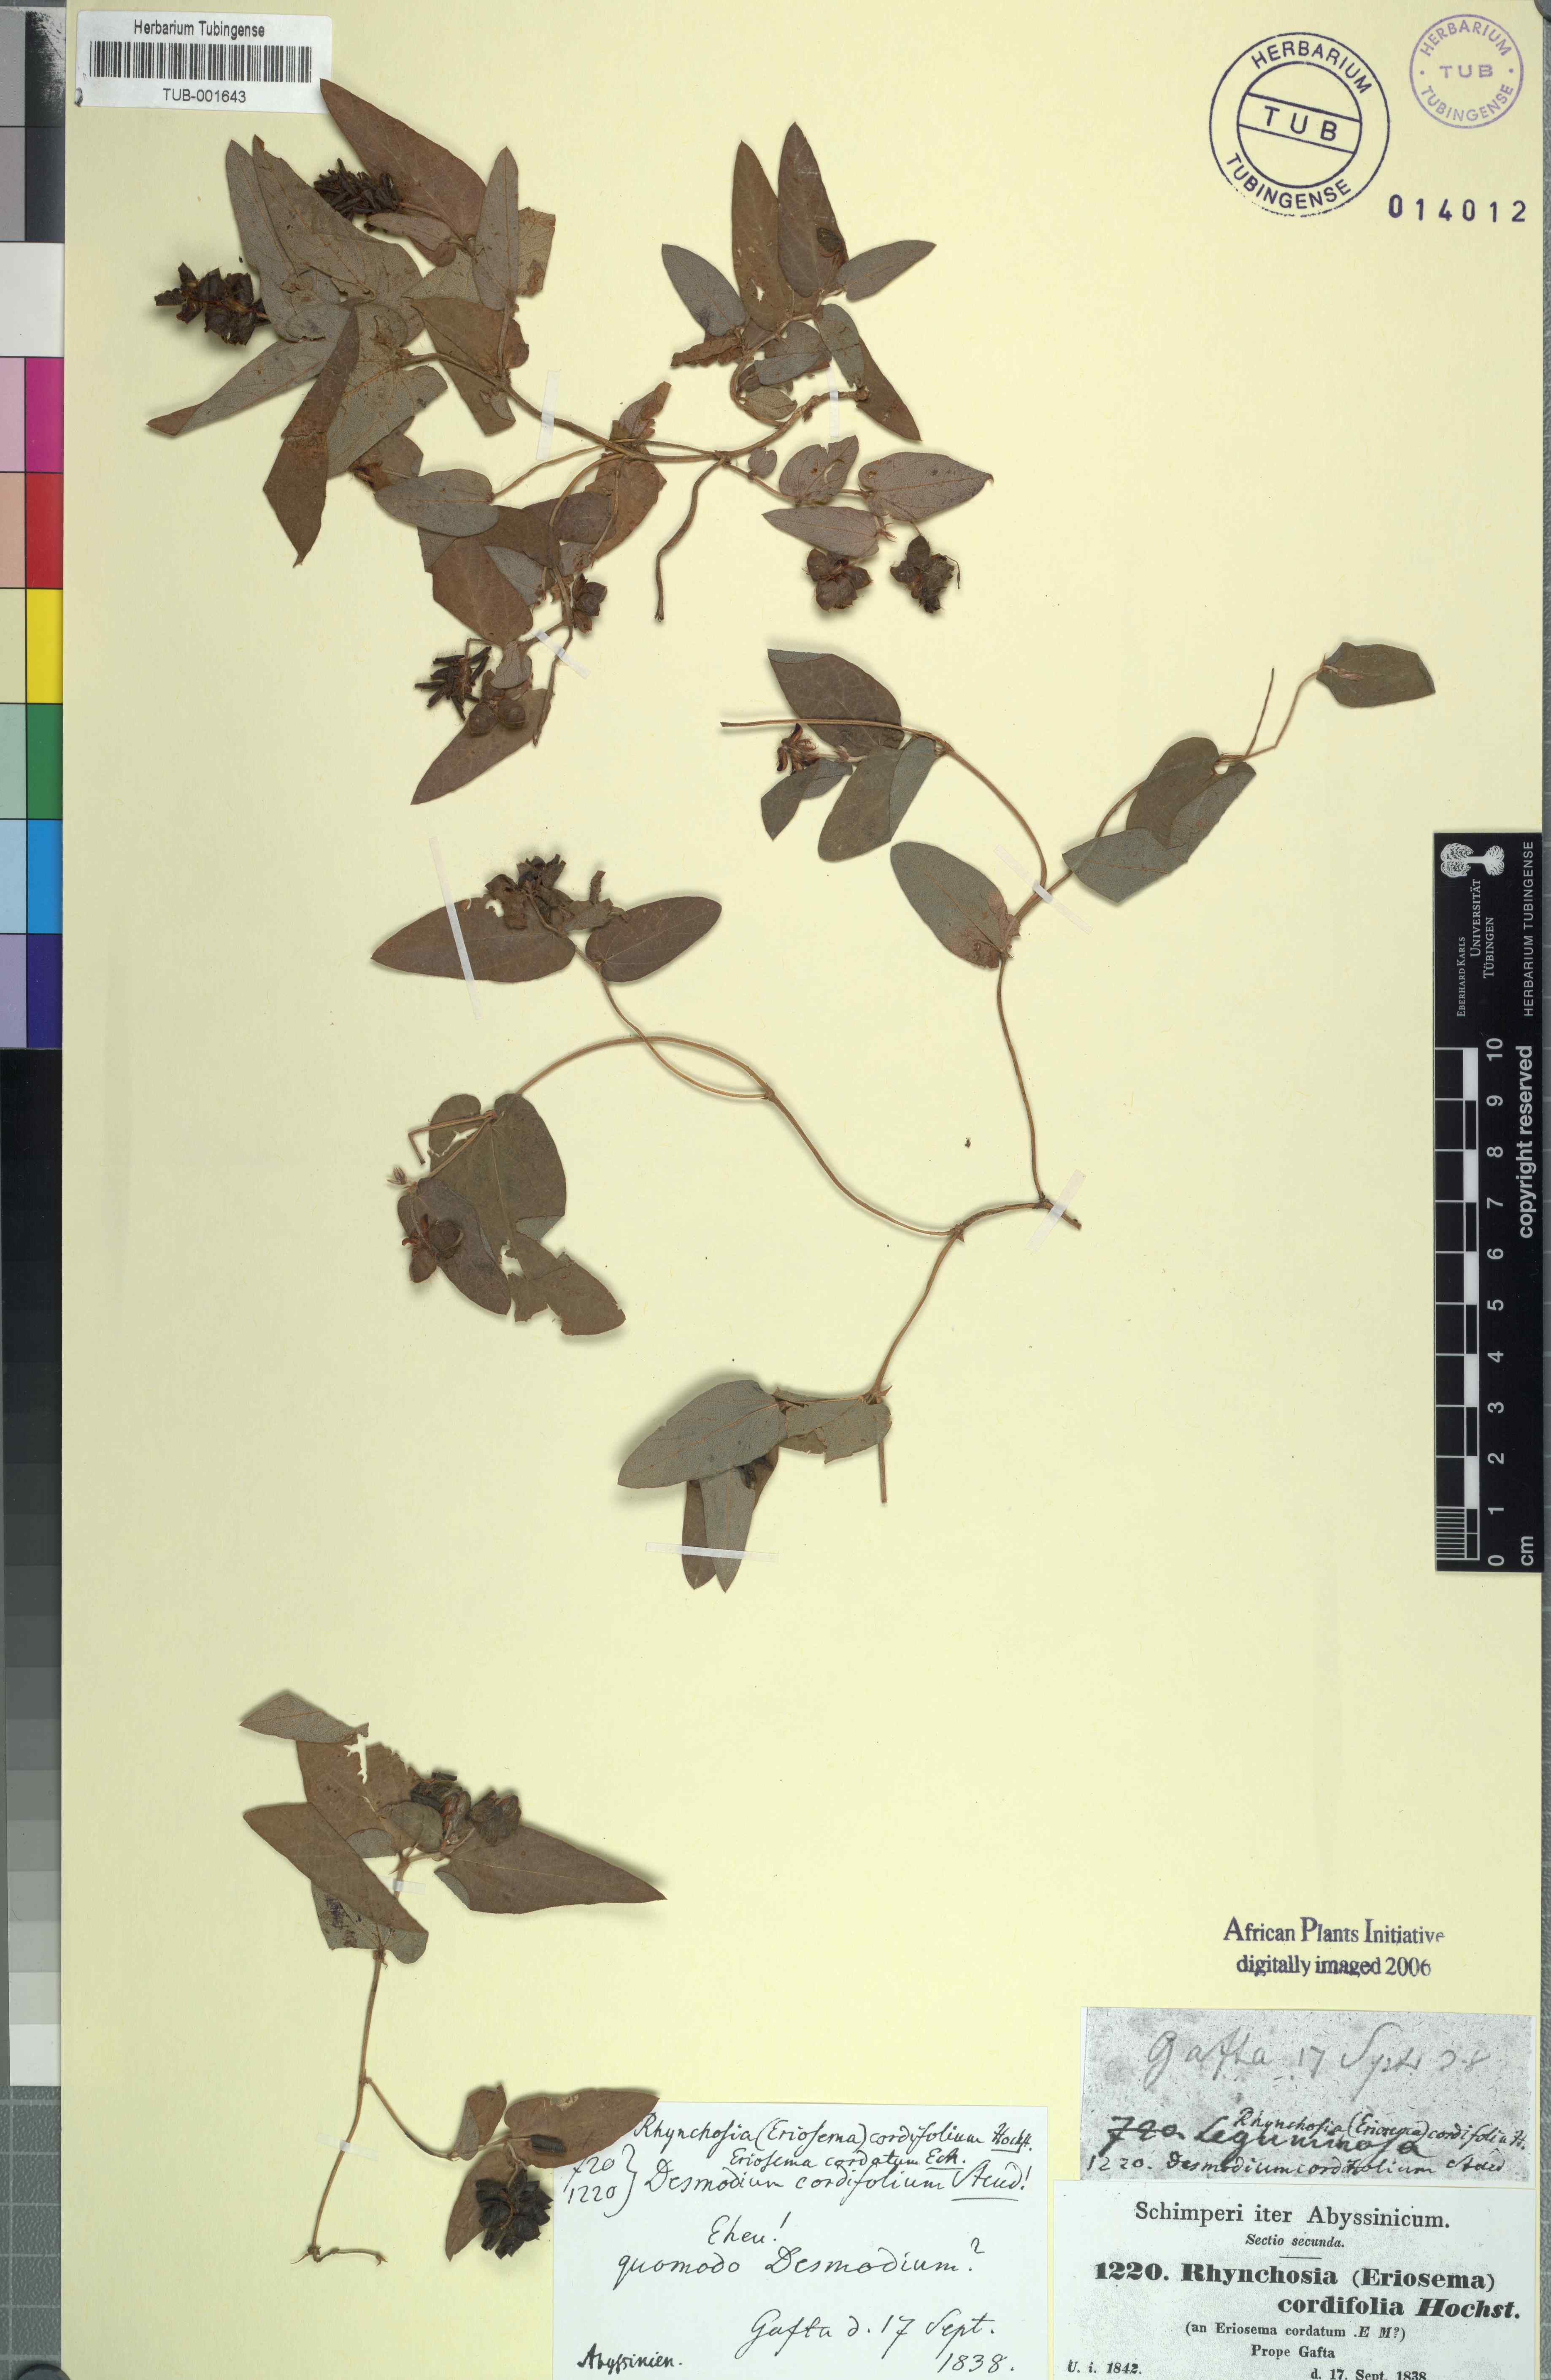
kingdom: Plantae
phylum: Tracheophyta
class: Magnoliopsida
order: Fabales
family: Fabaceae
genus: Eriosema
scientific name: Eriosema cordifolium
